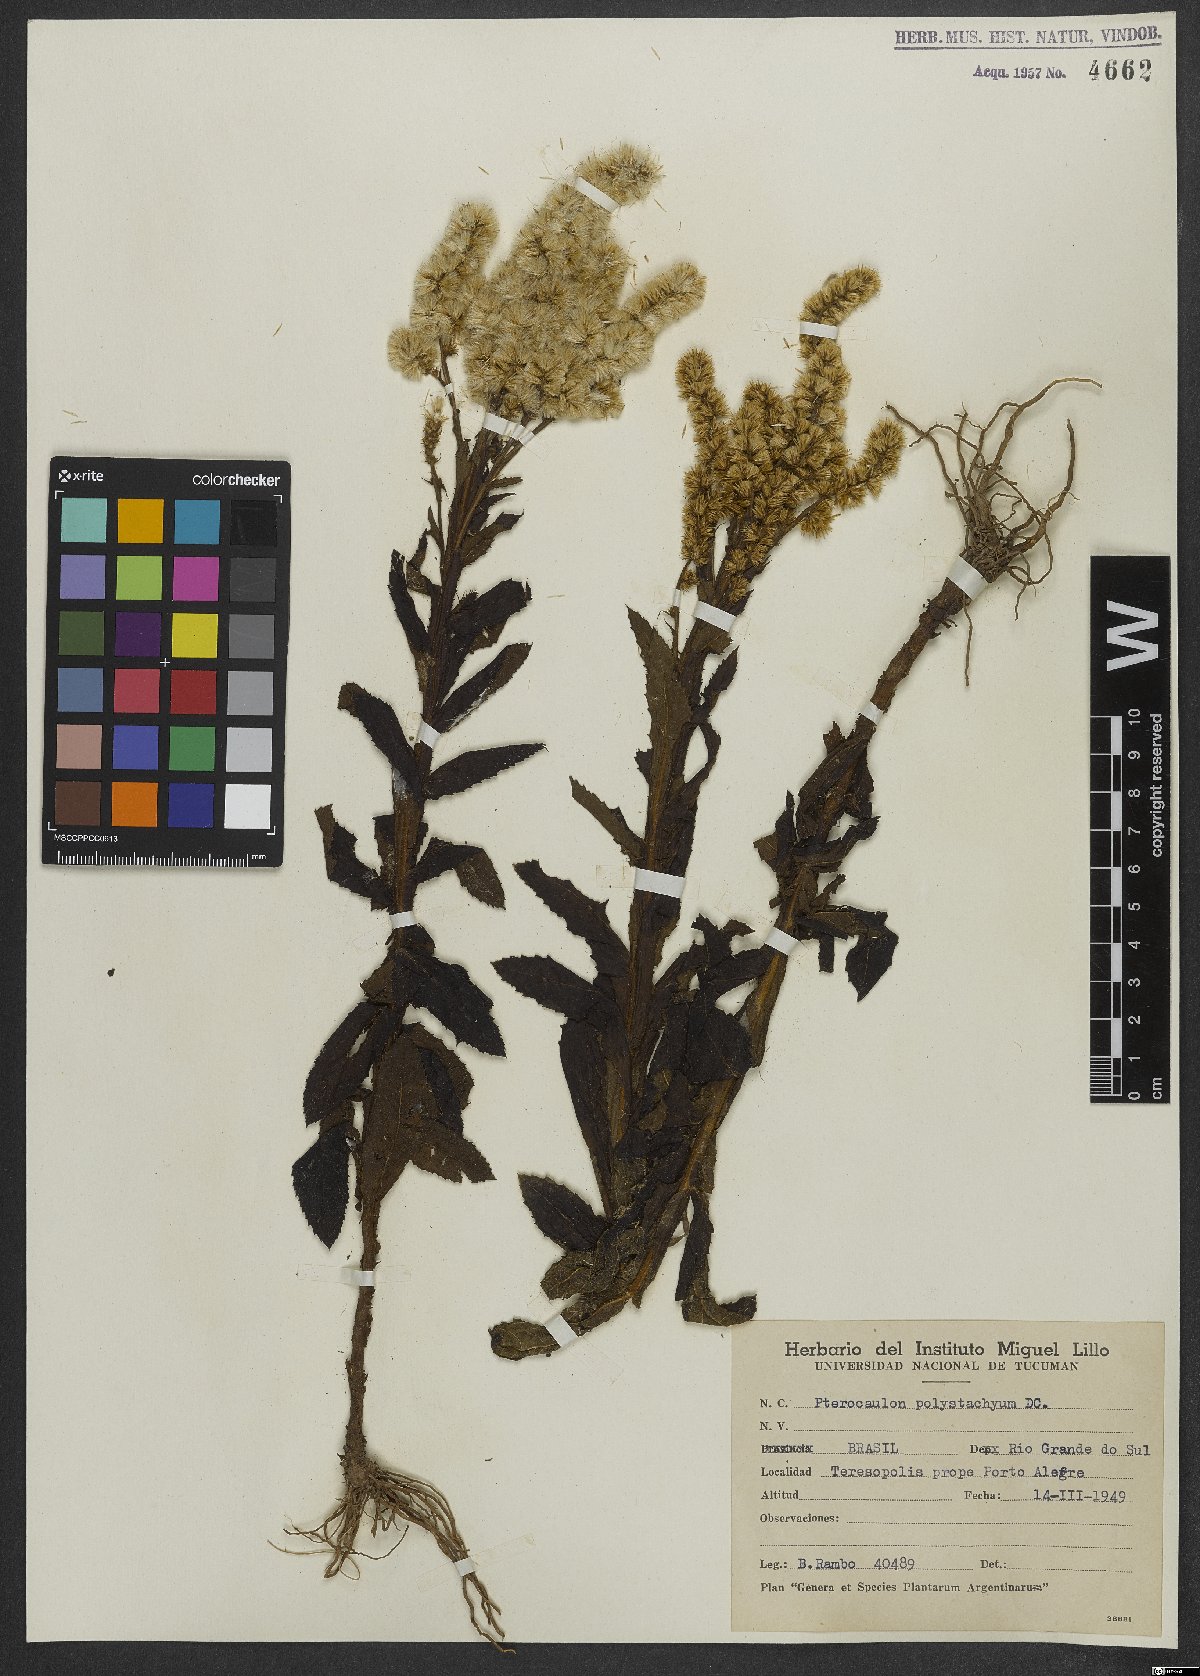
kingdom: Plantae
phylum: Tracheophyta
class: Magnoliopsida
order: Asterales
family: Asteraceae
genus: Pterocaulon
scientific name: Pterocaulon polystachyum
